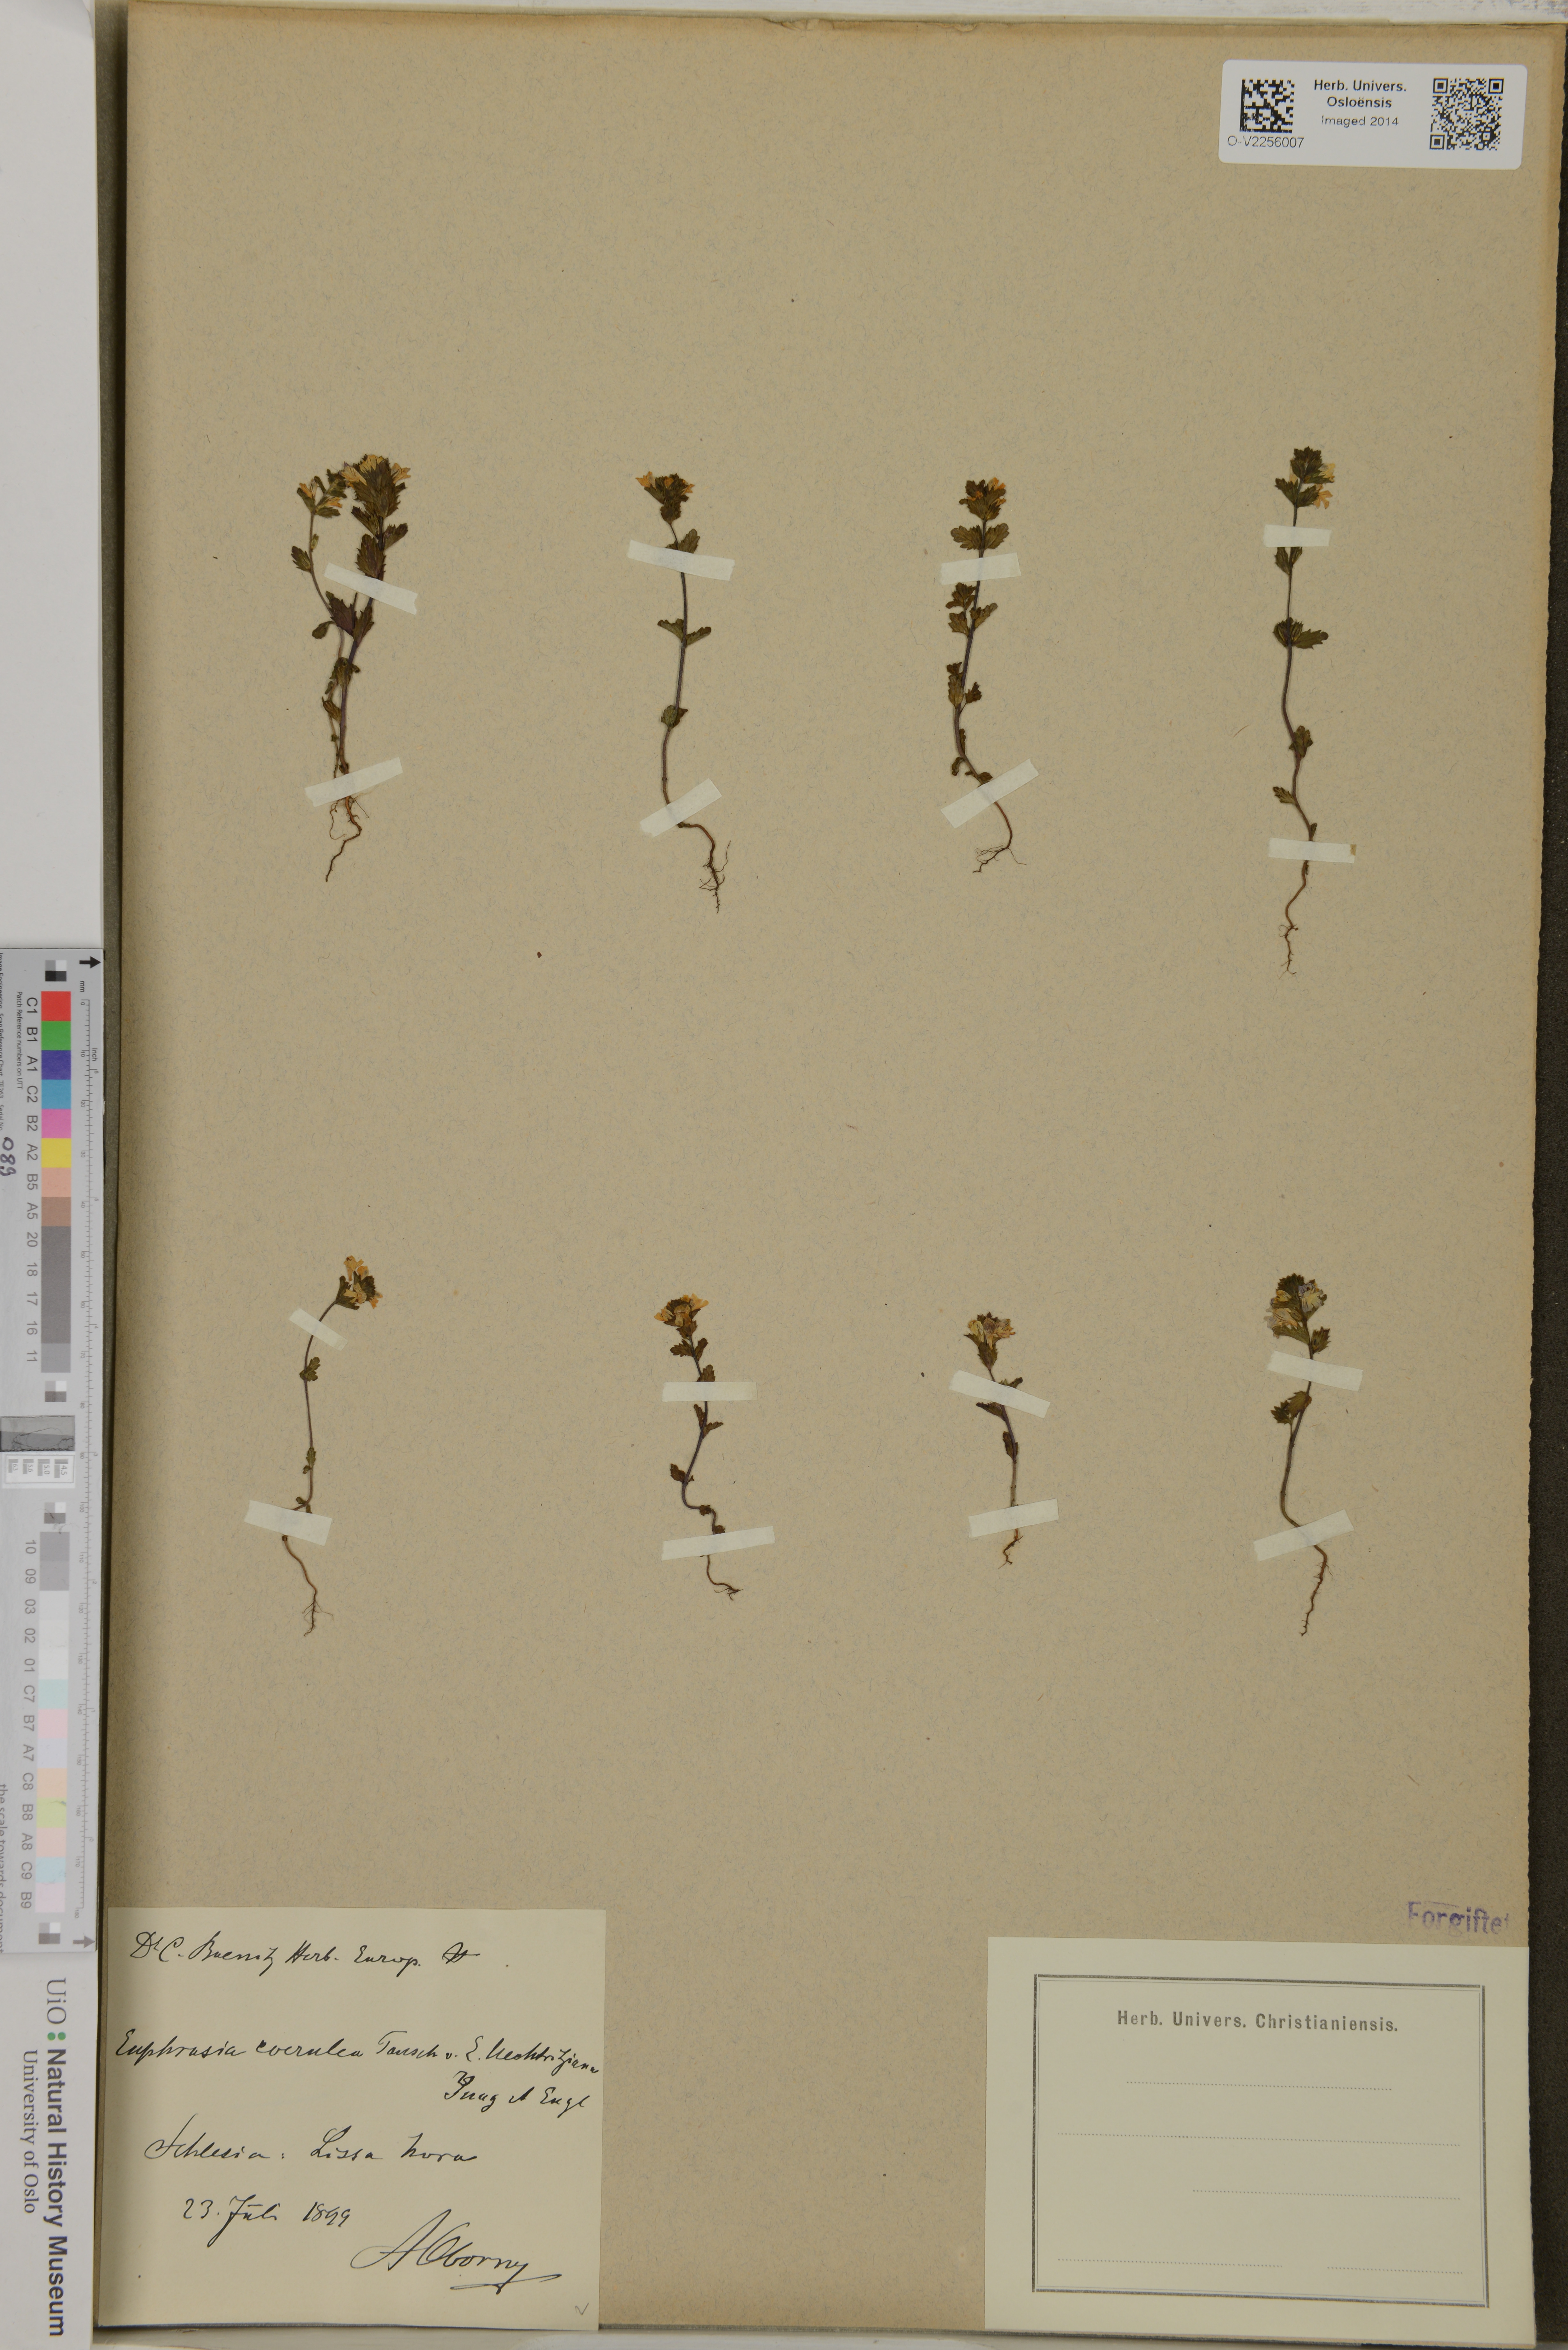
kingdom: Plantae
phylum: Tracheophyta
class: Magnoliopsida
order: Lamiales
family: Orobanchaceae
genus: Euphrasia
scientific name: Euphrasia
